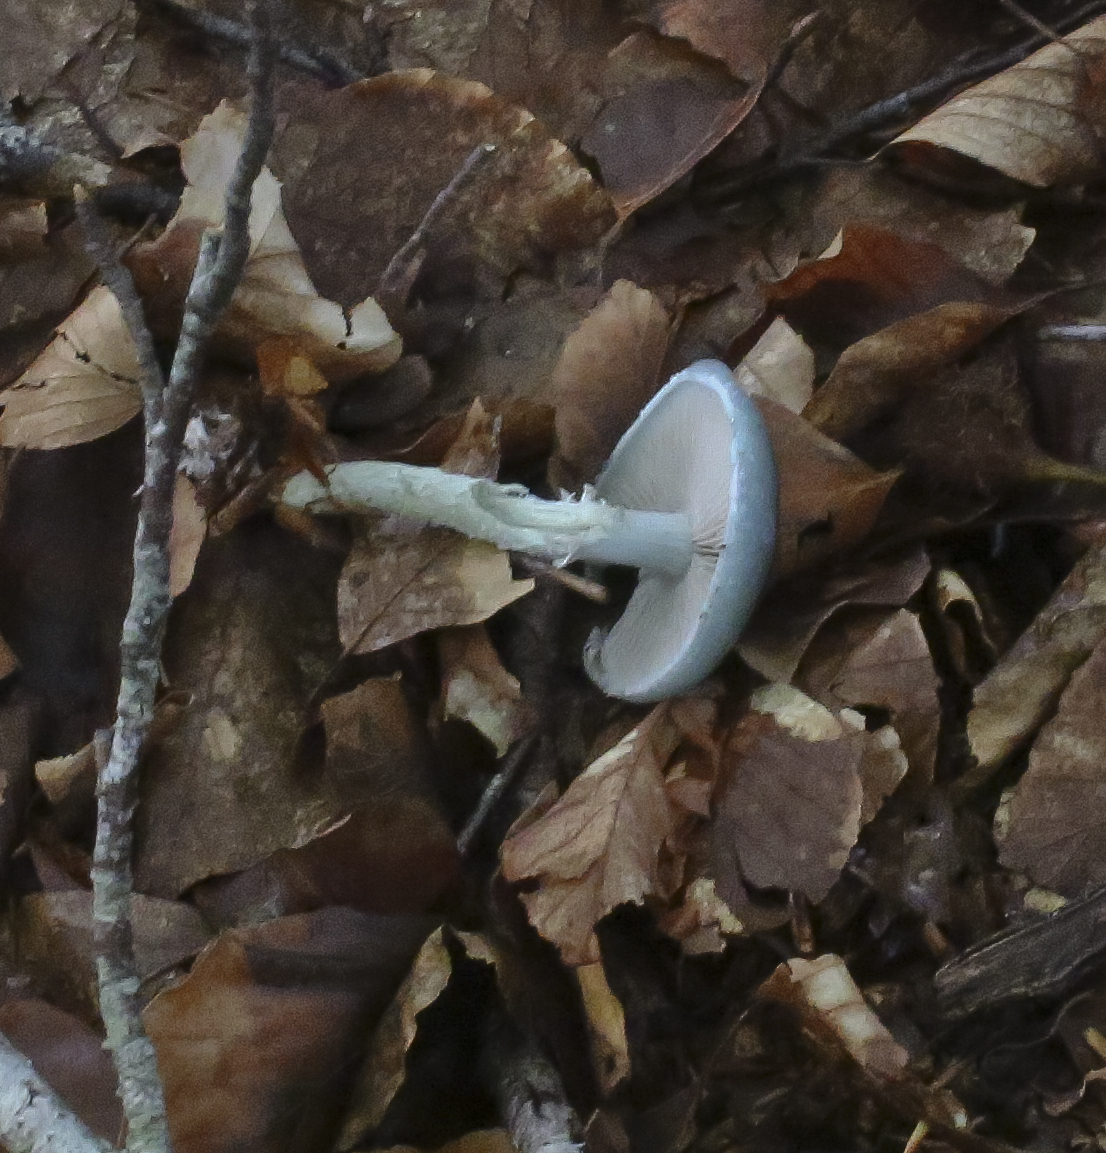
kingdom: Fungi
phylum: Basidiomycota
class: Agaricomycetes
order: Agaricales
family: Strophariaceae
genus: Stropharia
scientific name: Stropharia cyanea
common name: blågrøn bredblad
